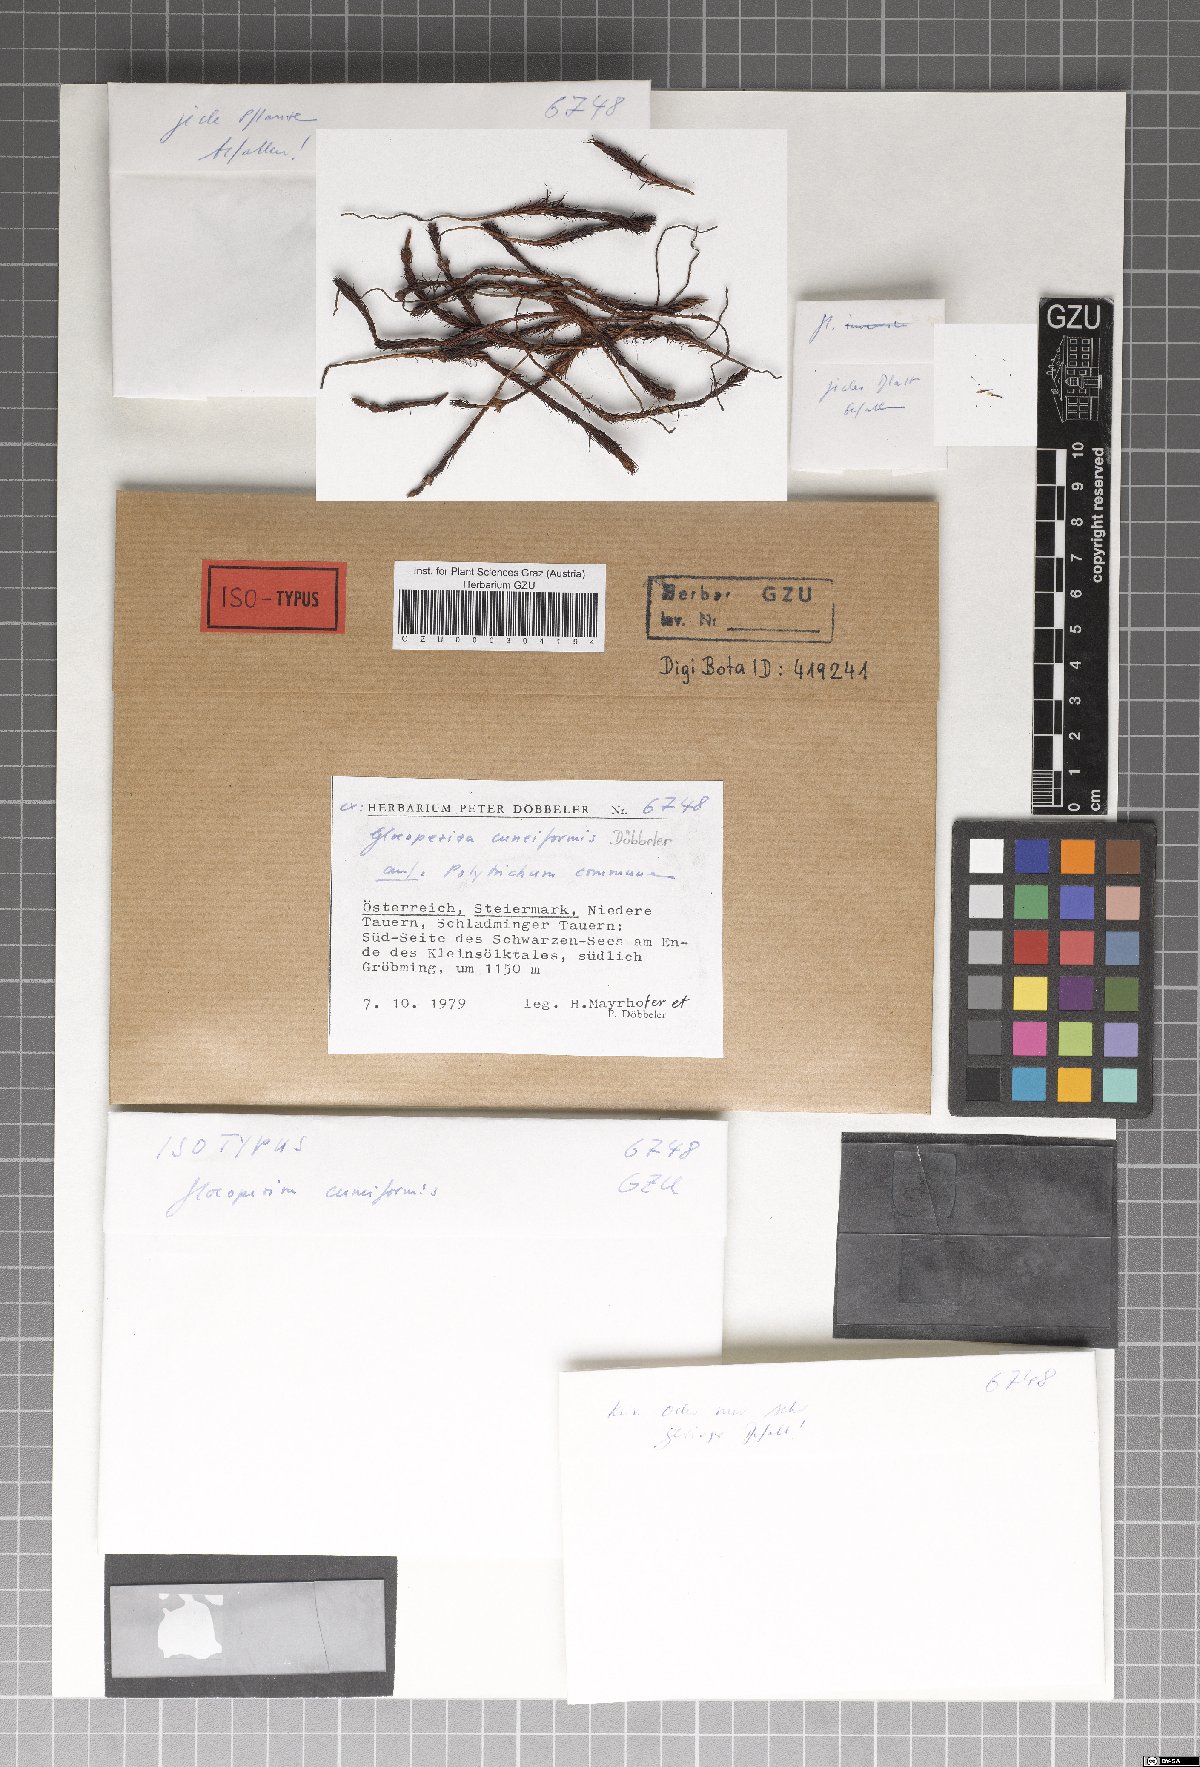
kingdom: Fungi
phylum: Ascomycota
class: Leotiomycetes
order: Helotiales
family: Helotiaceae
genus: Gloeopeziza
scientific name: Gloeopeziza cuneiformis
